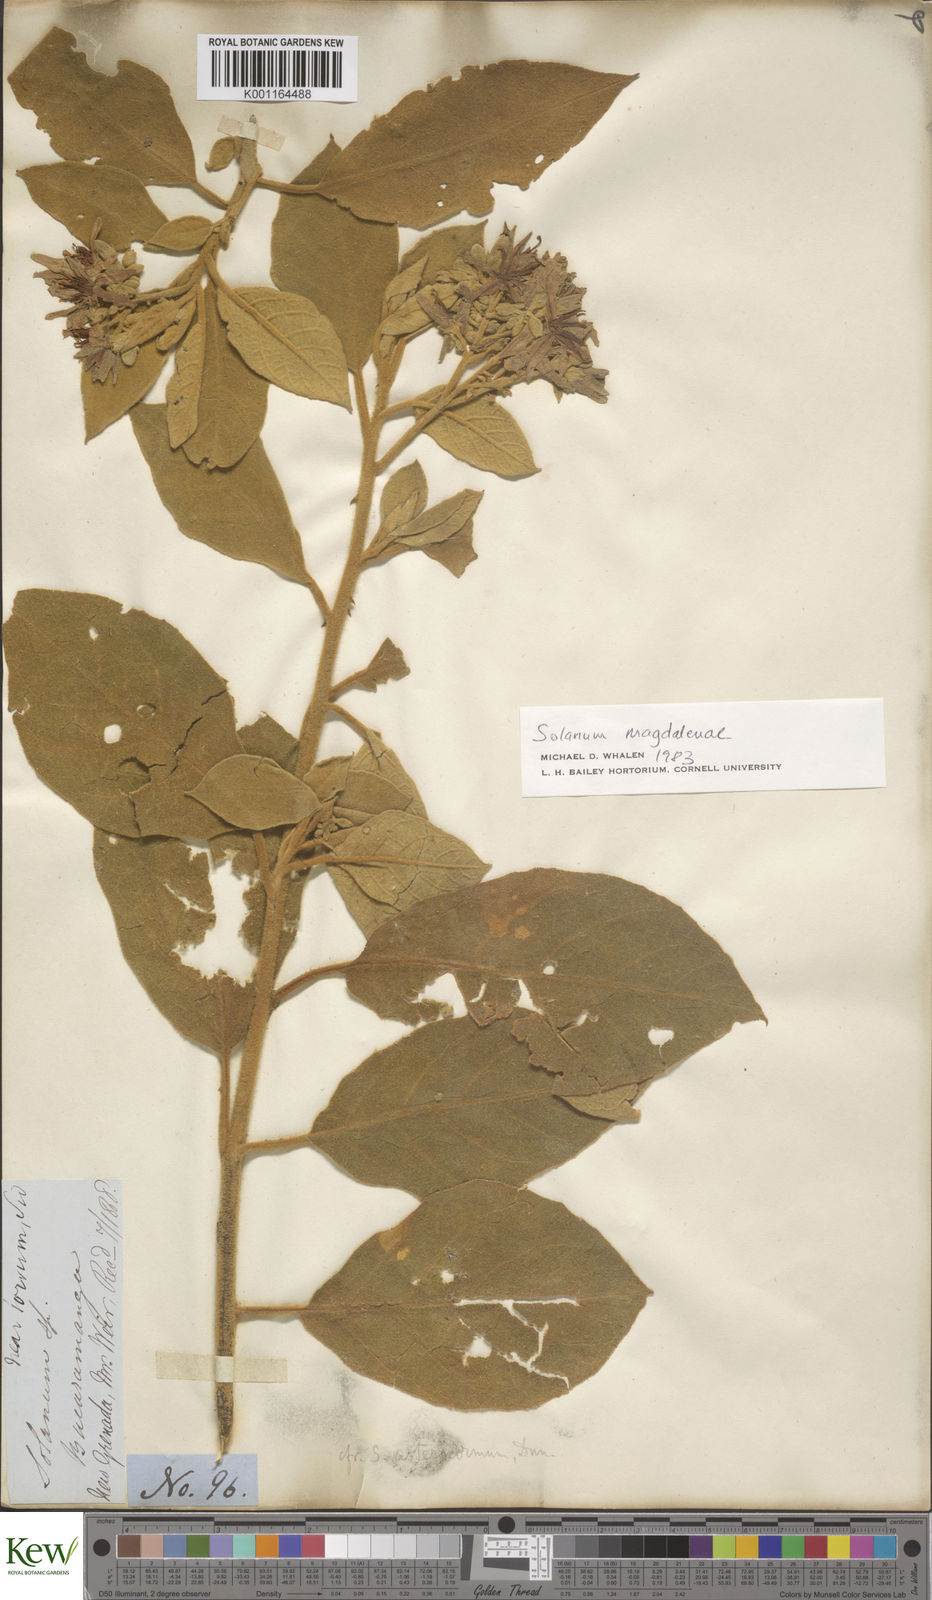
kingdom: Plantae
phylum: Tracheophyta
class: Magnoliopsida
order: Solanales
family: Solanaceae
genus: Solanum
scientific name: Solanum campylacanthum
